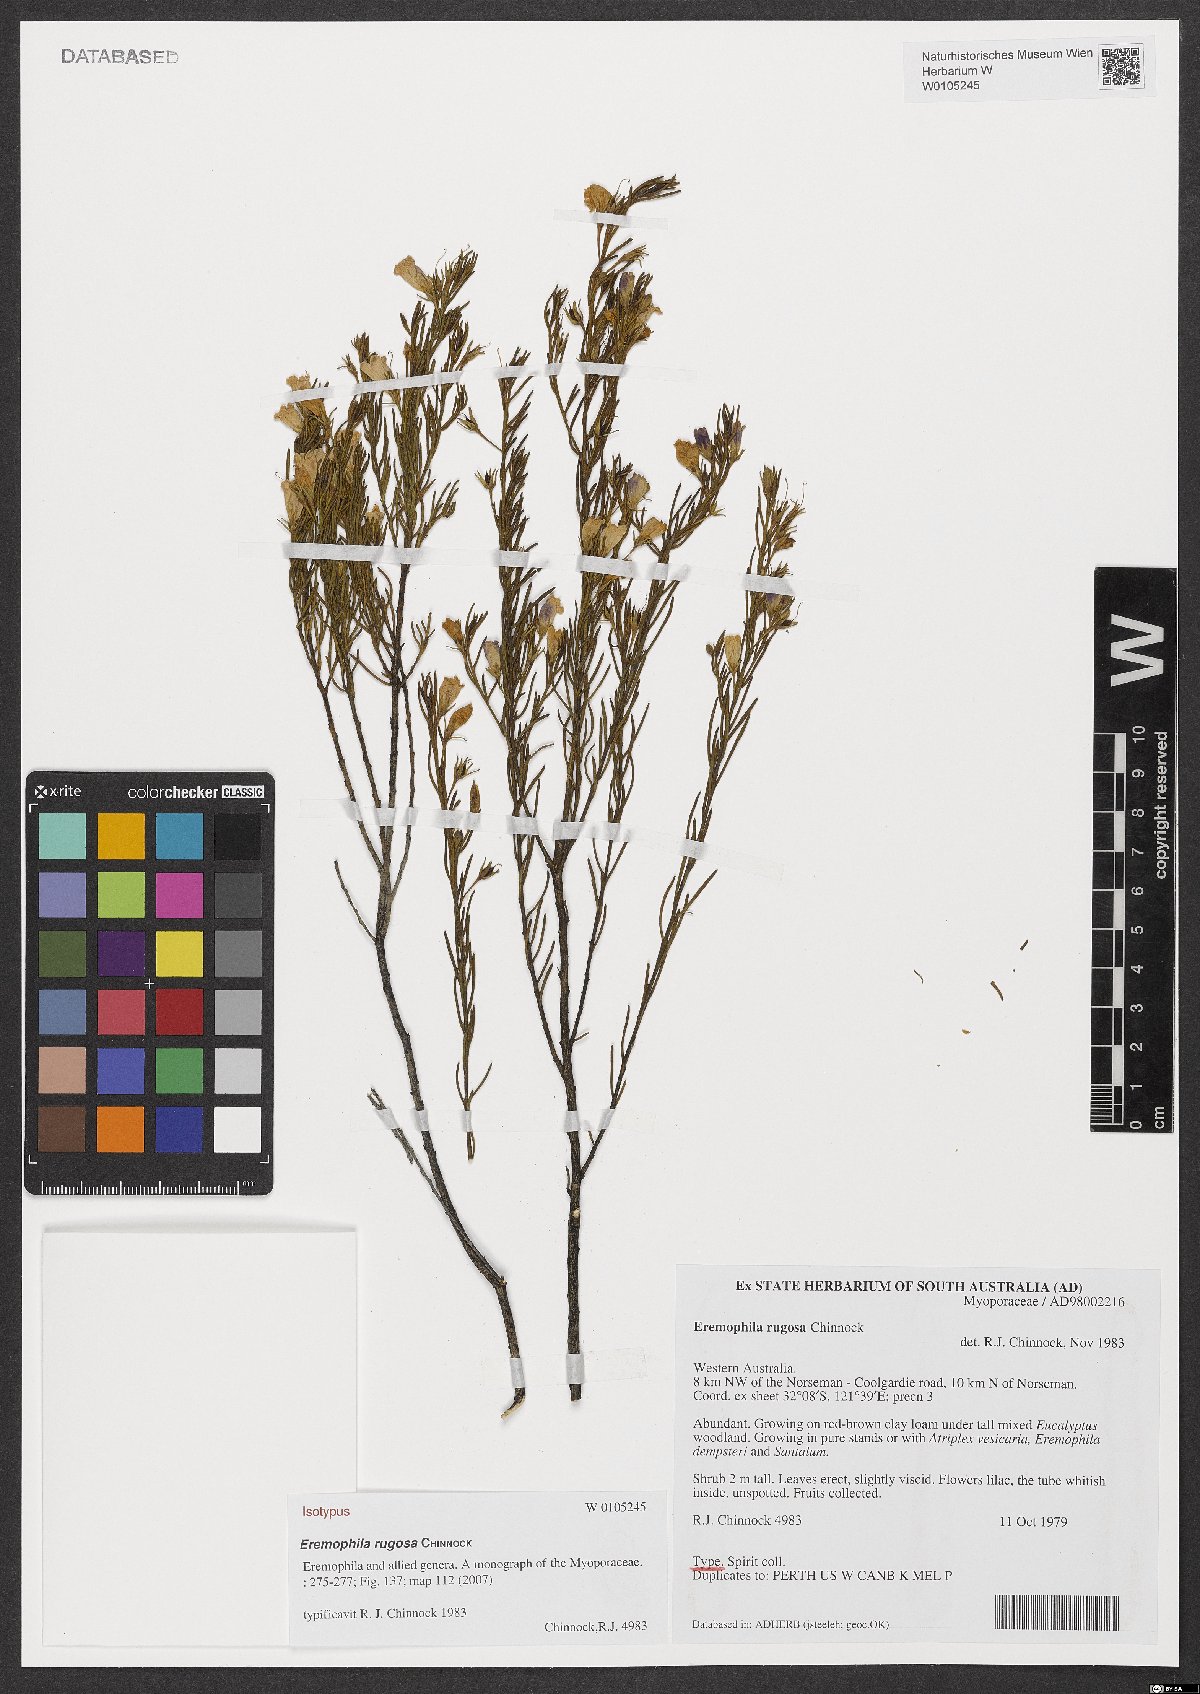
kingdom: Plantae
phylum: Tracheophyta
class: Magnoliopsida
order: Lamiales
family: Scrophulariaceae
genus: Eremophila
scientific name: Eremophila rugosa
